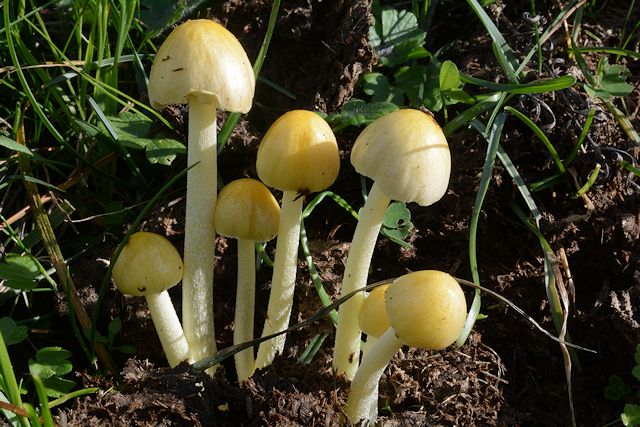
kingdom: Fungi
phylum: Basidiomycota
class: Agaricomycetes
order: Agaricales
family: Bolbitiaceae
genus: Bolbitius
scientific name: Bolbitius titubans
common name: almindelig gulhat
